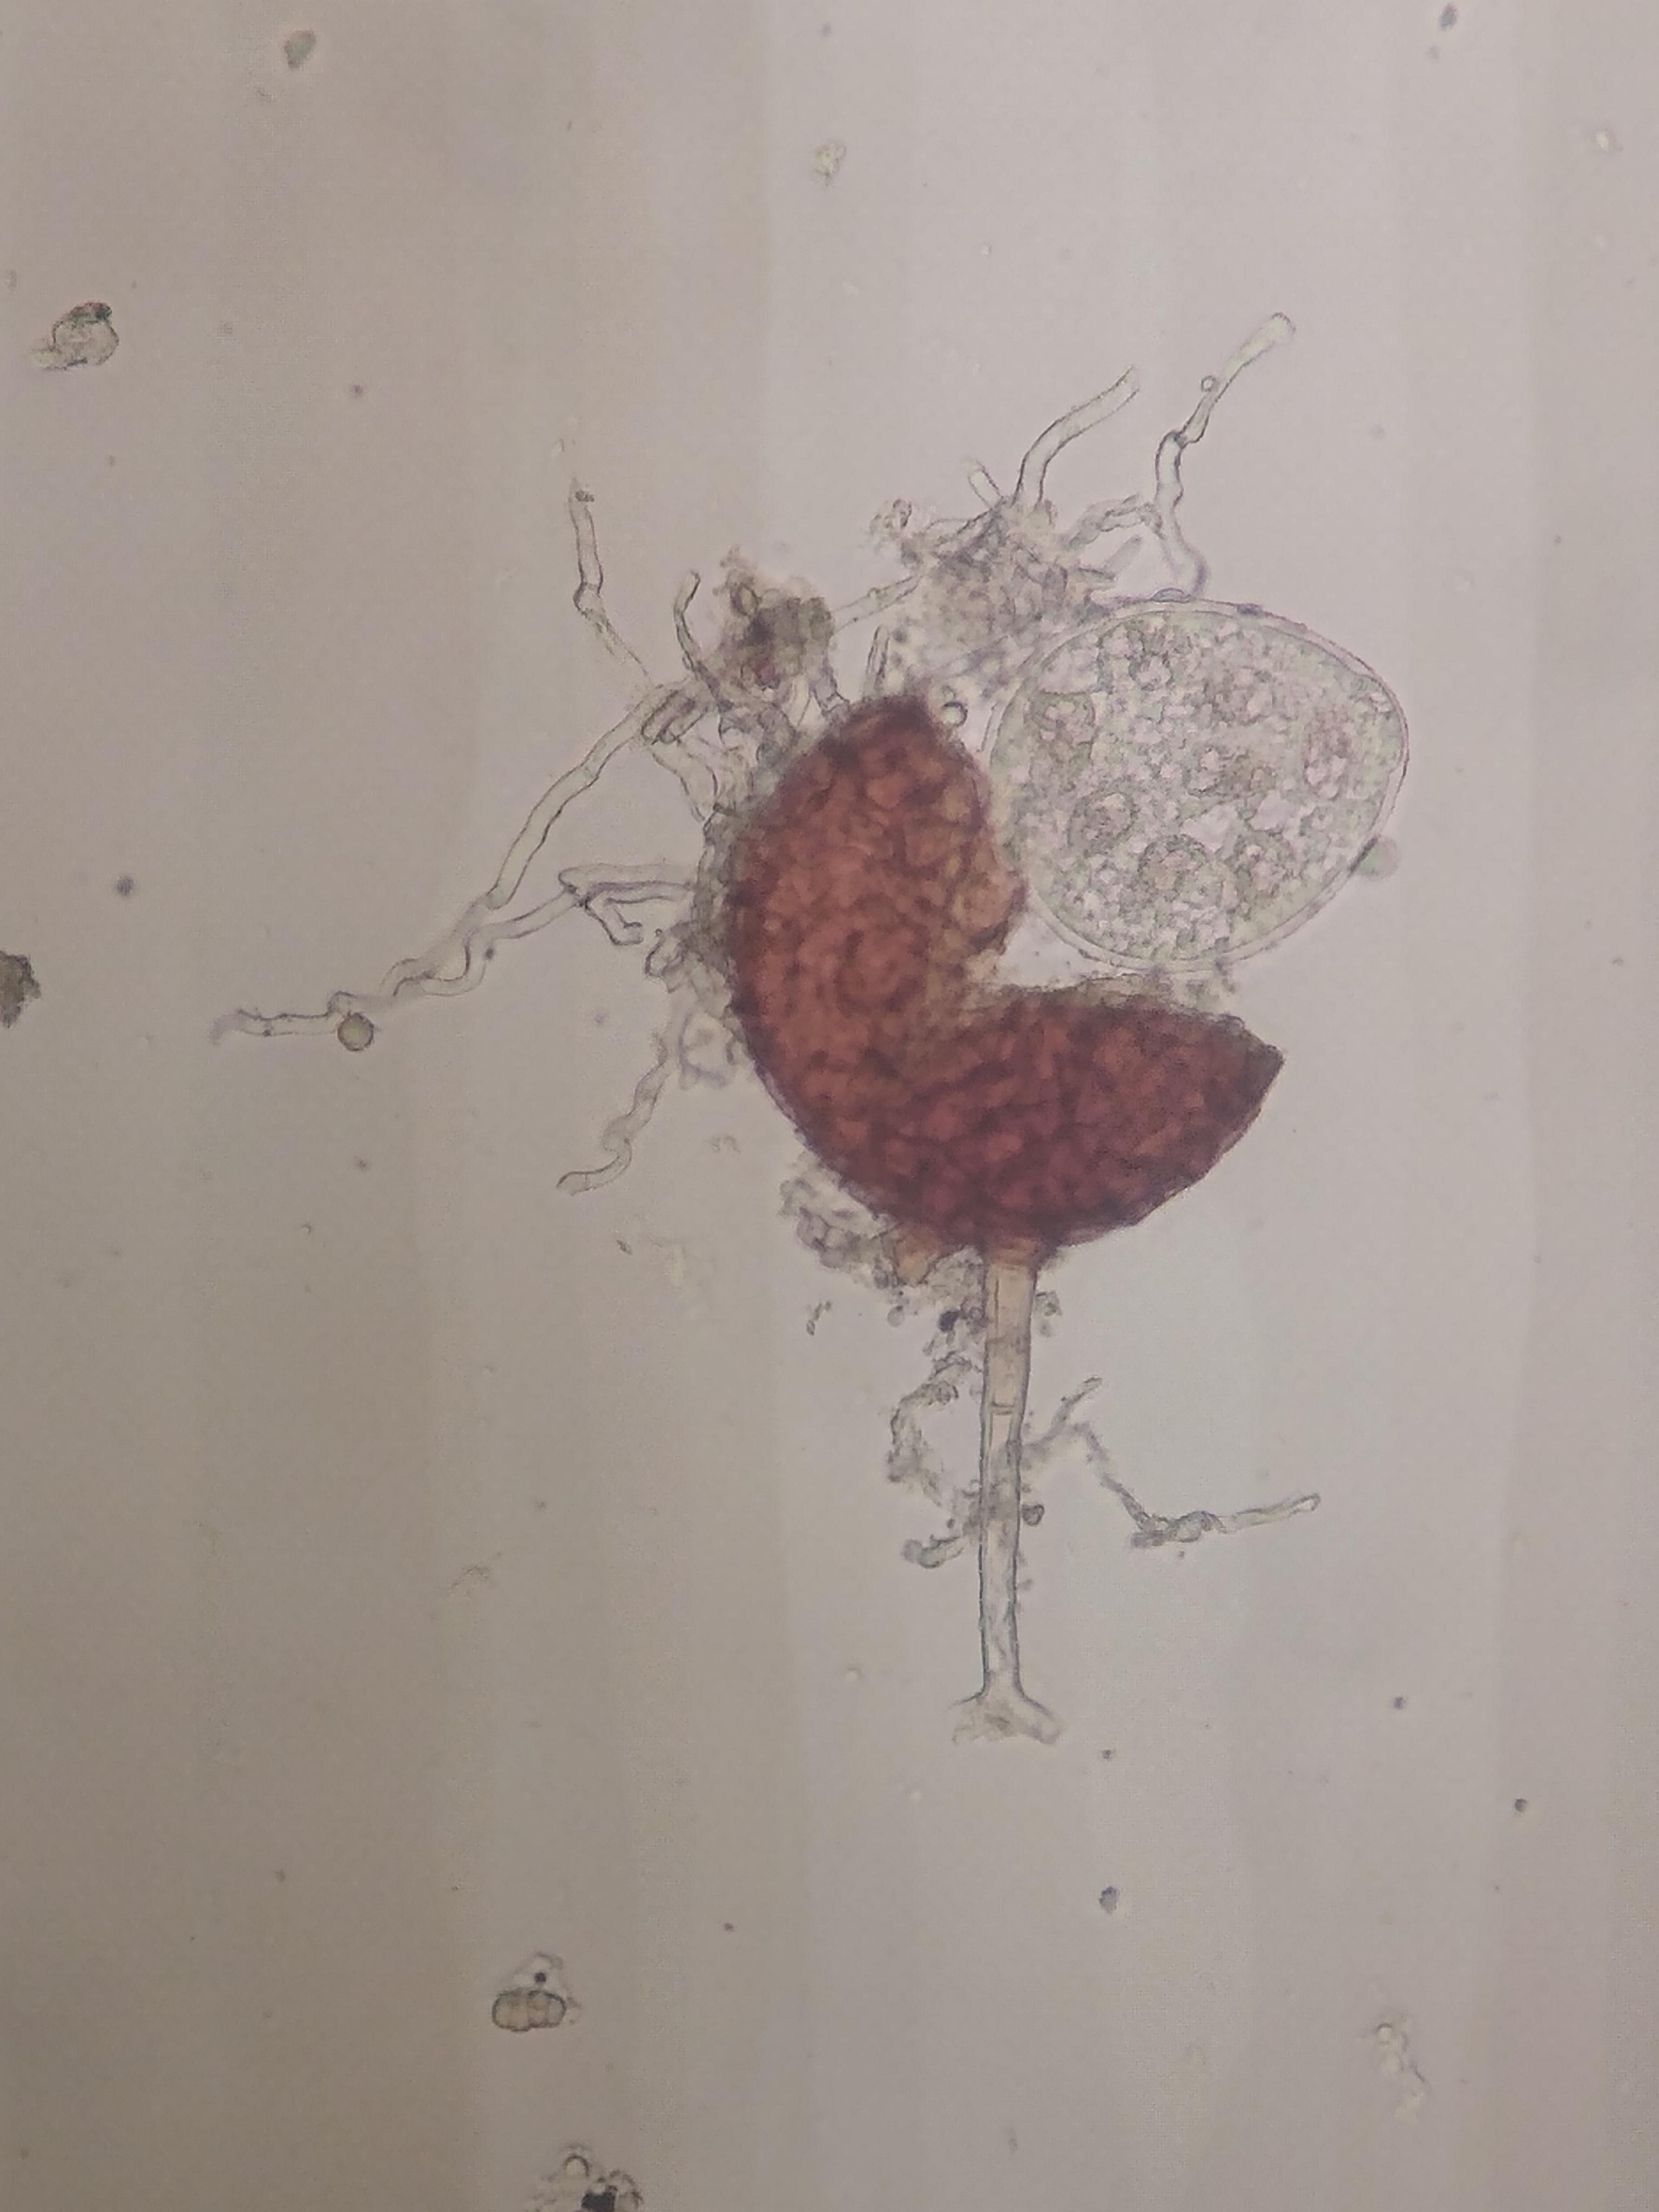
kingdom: Fungi
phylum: Ascomycota
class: Leotiomycetes
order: Helotiales
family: Erysiphaceae
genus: Podosphaera
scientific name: Podosphaera clandestina
